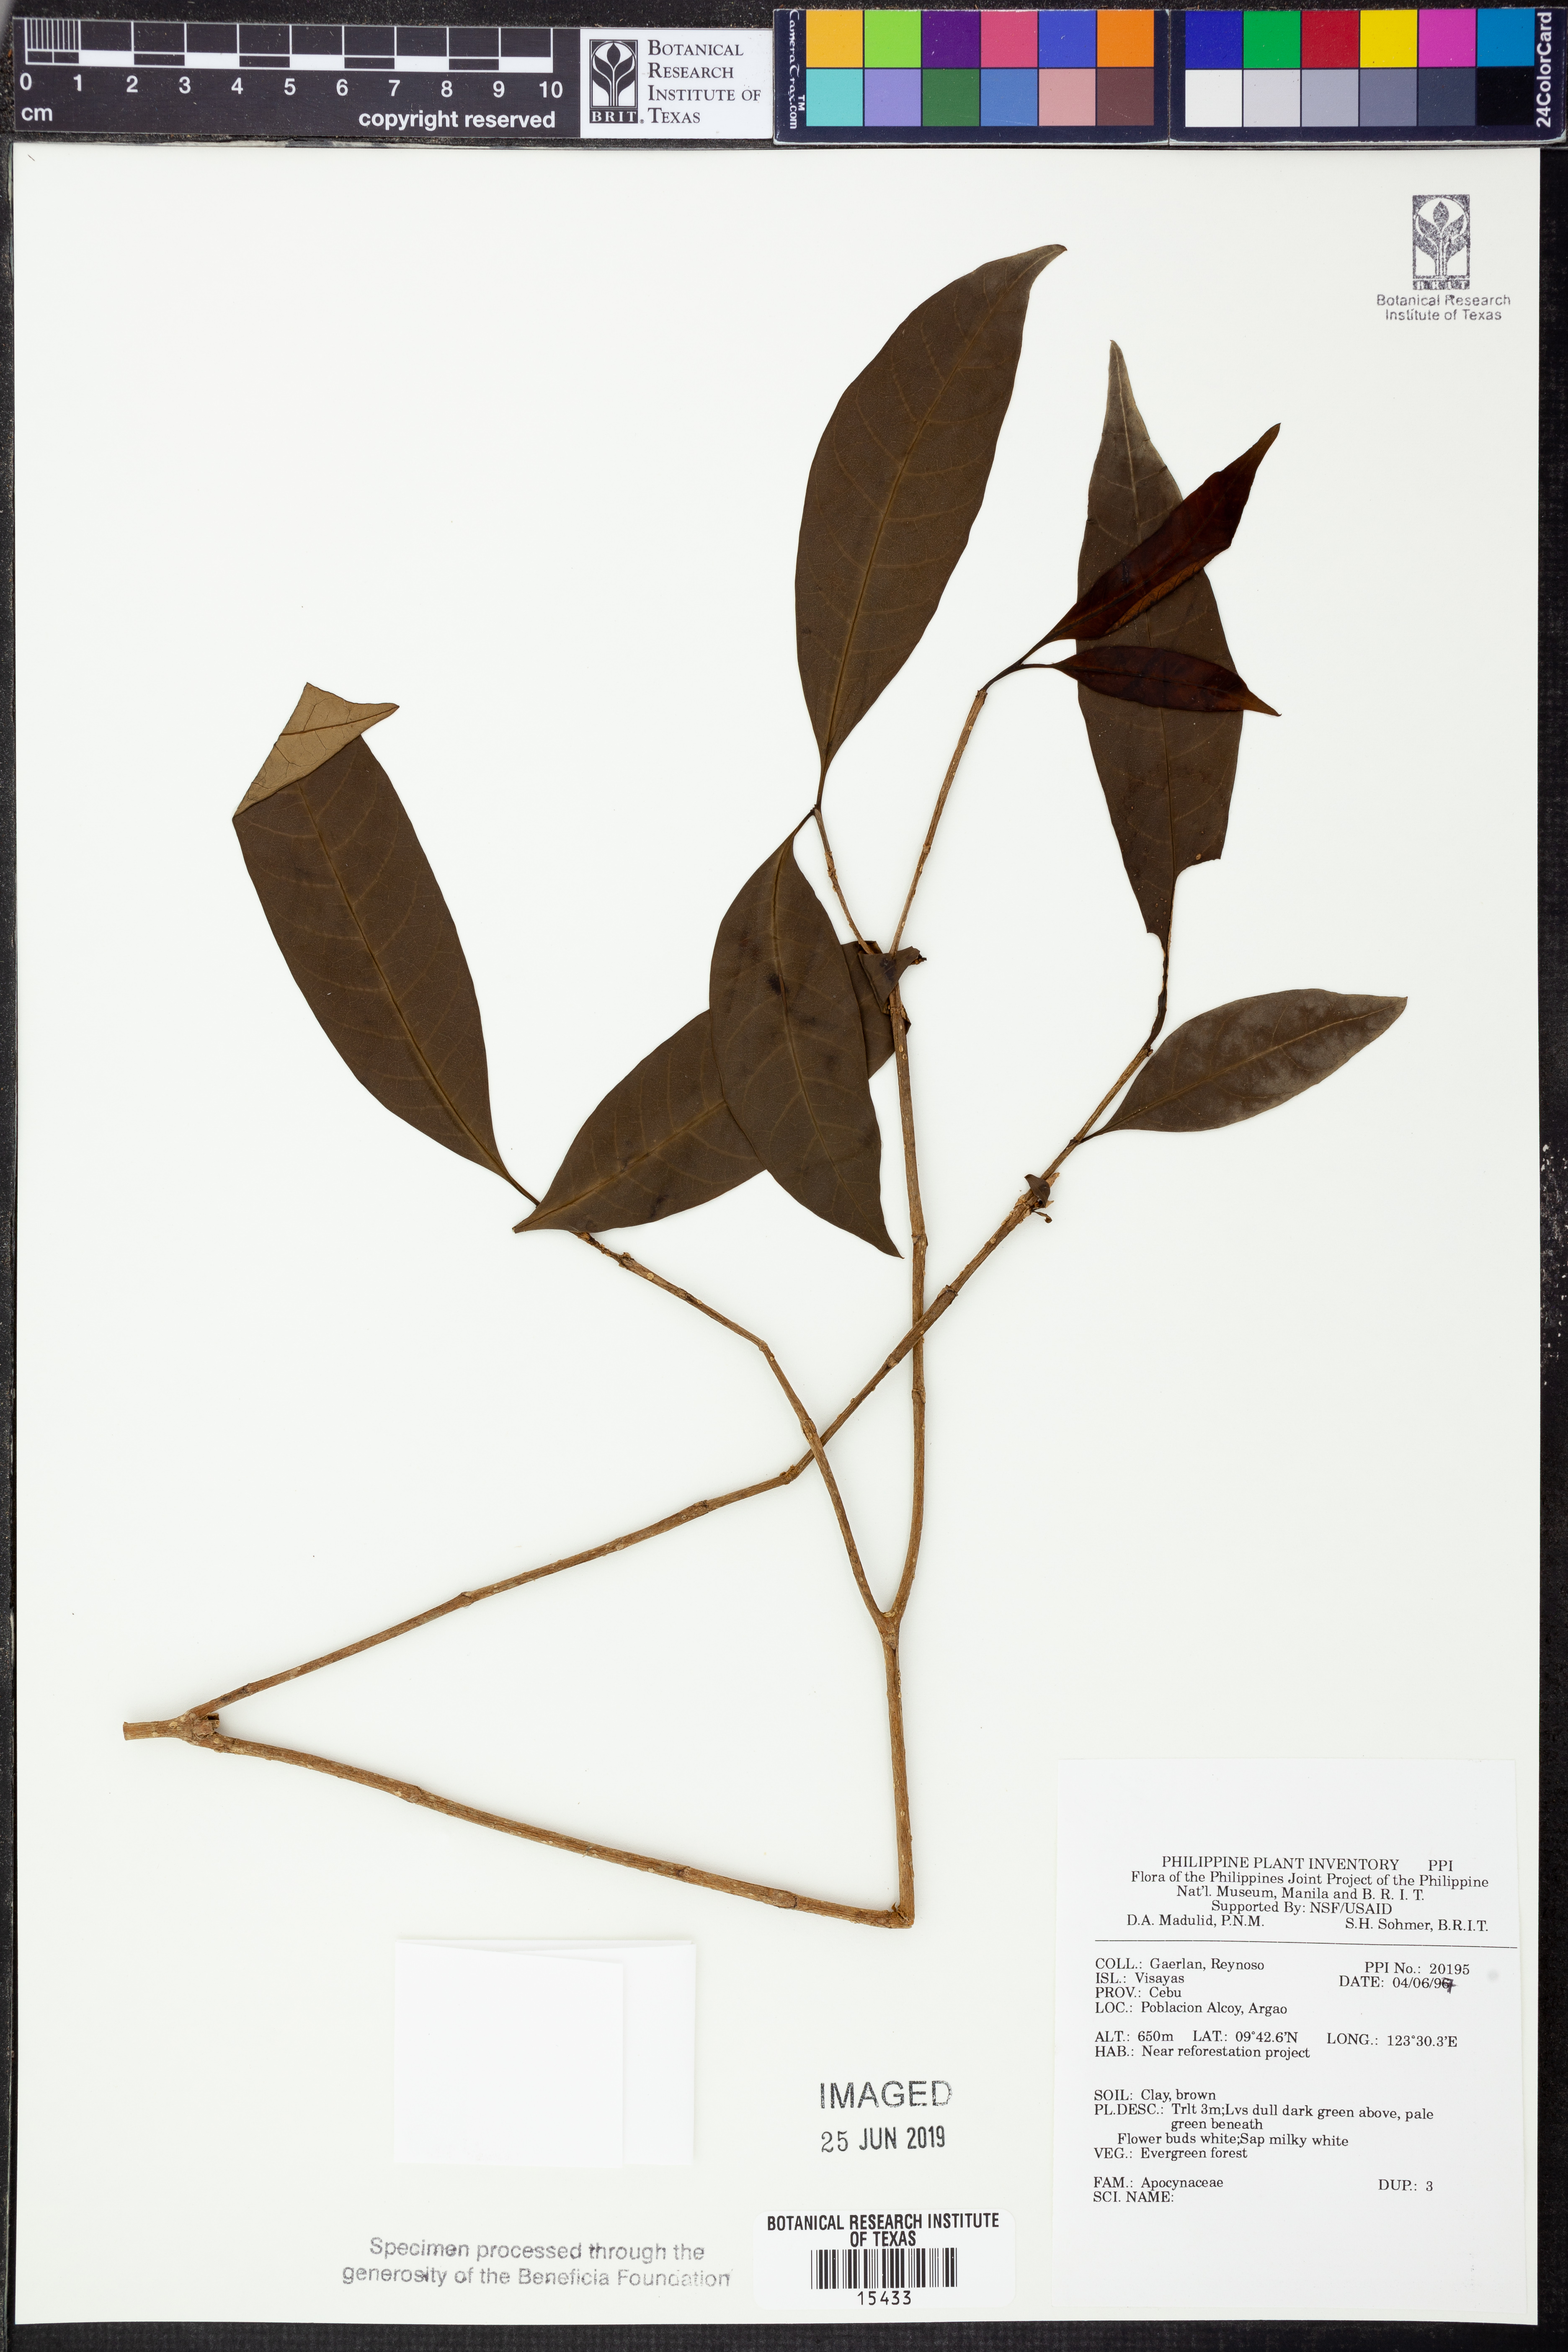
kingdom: Plantae
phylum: Tracheophyta
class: Magnoliopsida
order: Gentianales
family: Apocynaceae
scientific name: Apocynaceae
